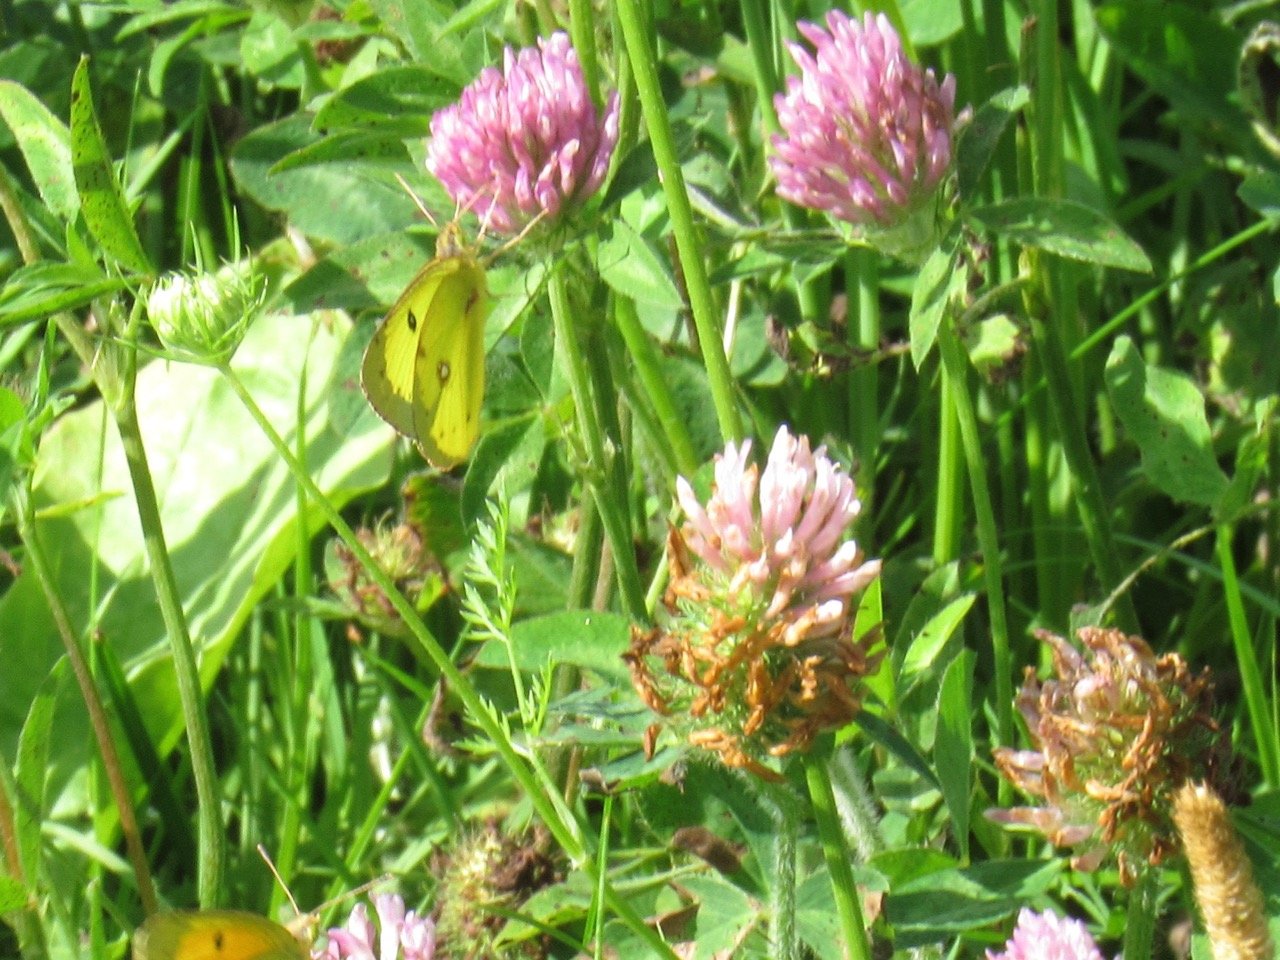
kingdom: Animalia
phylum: Arthropoda
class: Insecta
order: Lepidoptera
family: Pieridae
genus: Colias
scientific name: Colias philodice
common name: Clouded Sulphur
